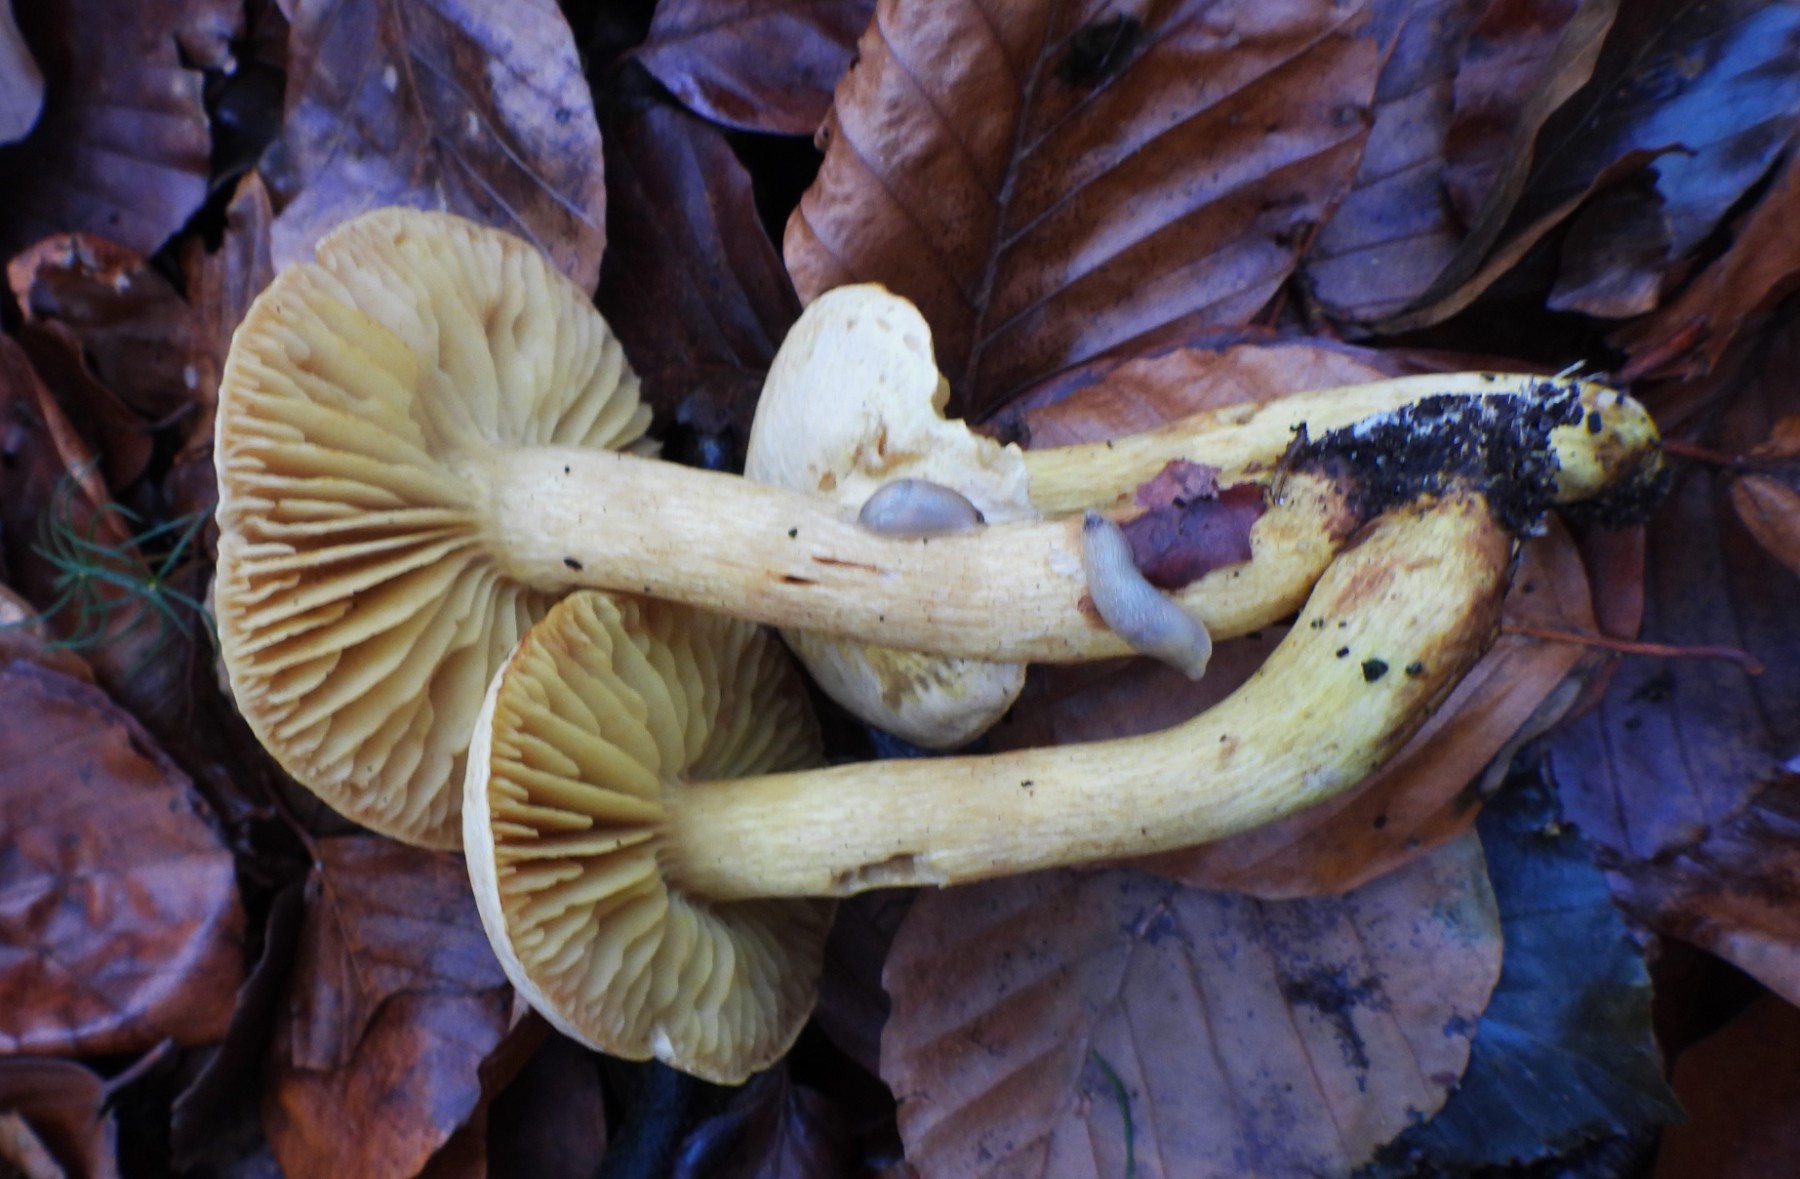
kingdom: Fungi
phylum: Basidiomycota
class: Agaricomycetes
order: Agaricales
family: Tricholomataceae
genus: Tricholoma
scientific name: Tricholoma sulphureum
